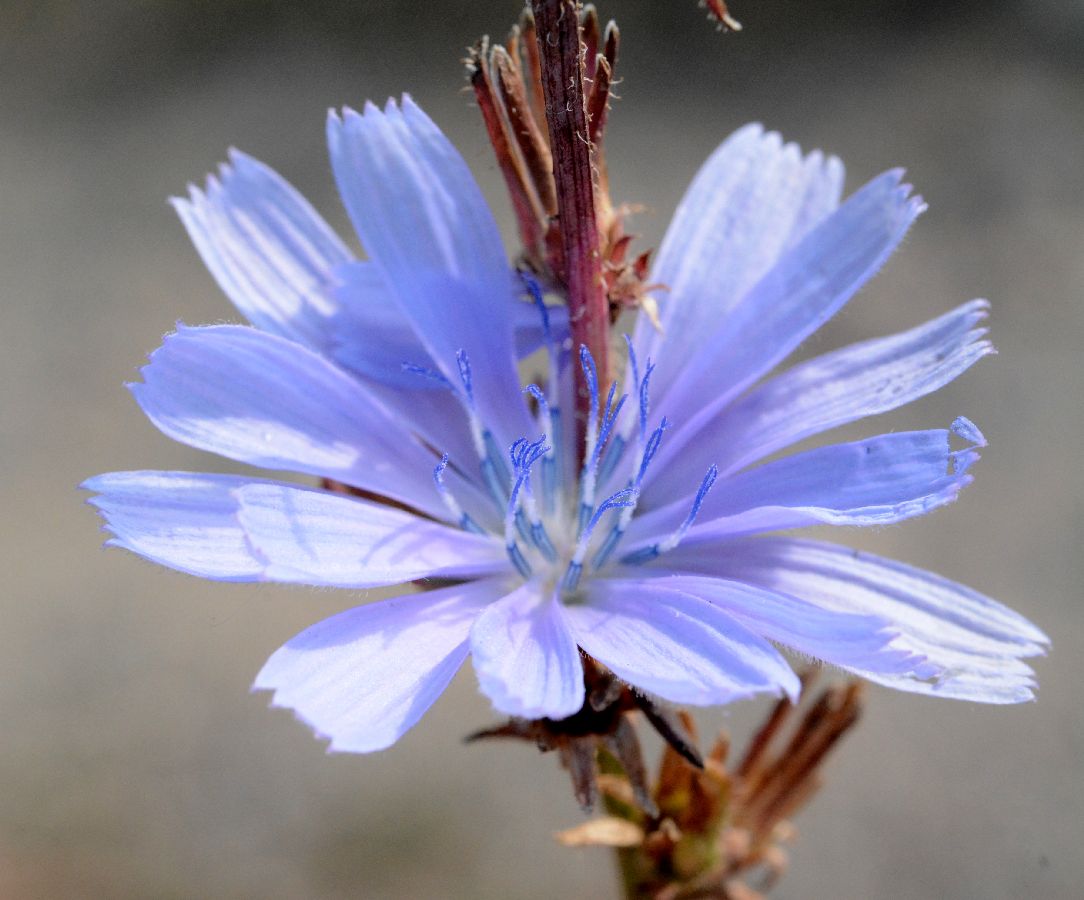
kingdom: Plantae
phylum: Tracheophyta
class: Magnoliopsida
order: Asterales
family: Asteraceae
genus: Cichorium
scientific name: Cichorium intybus
